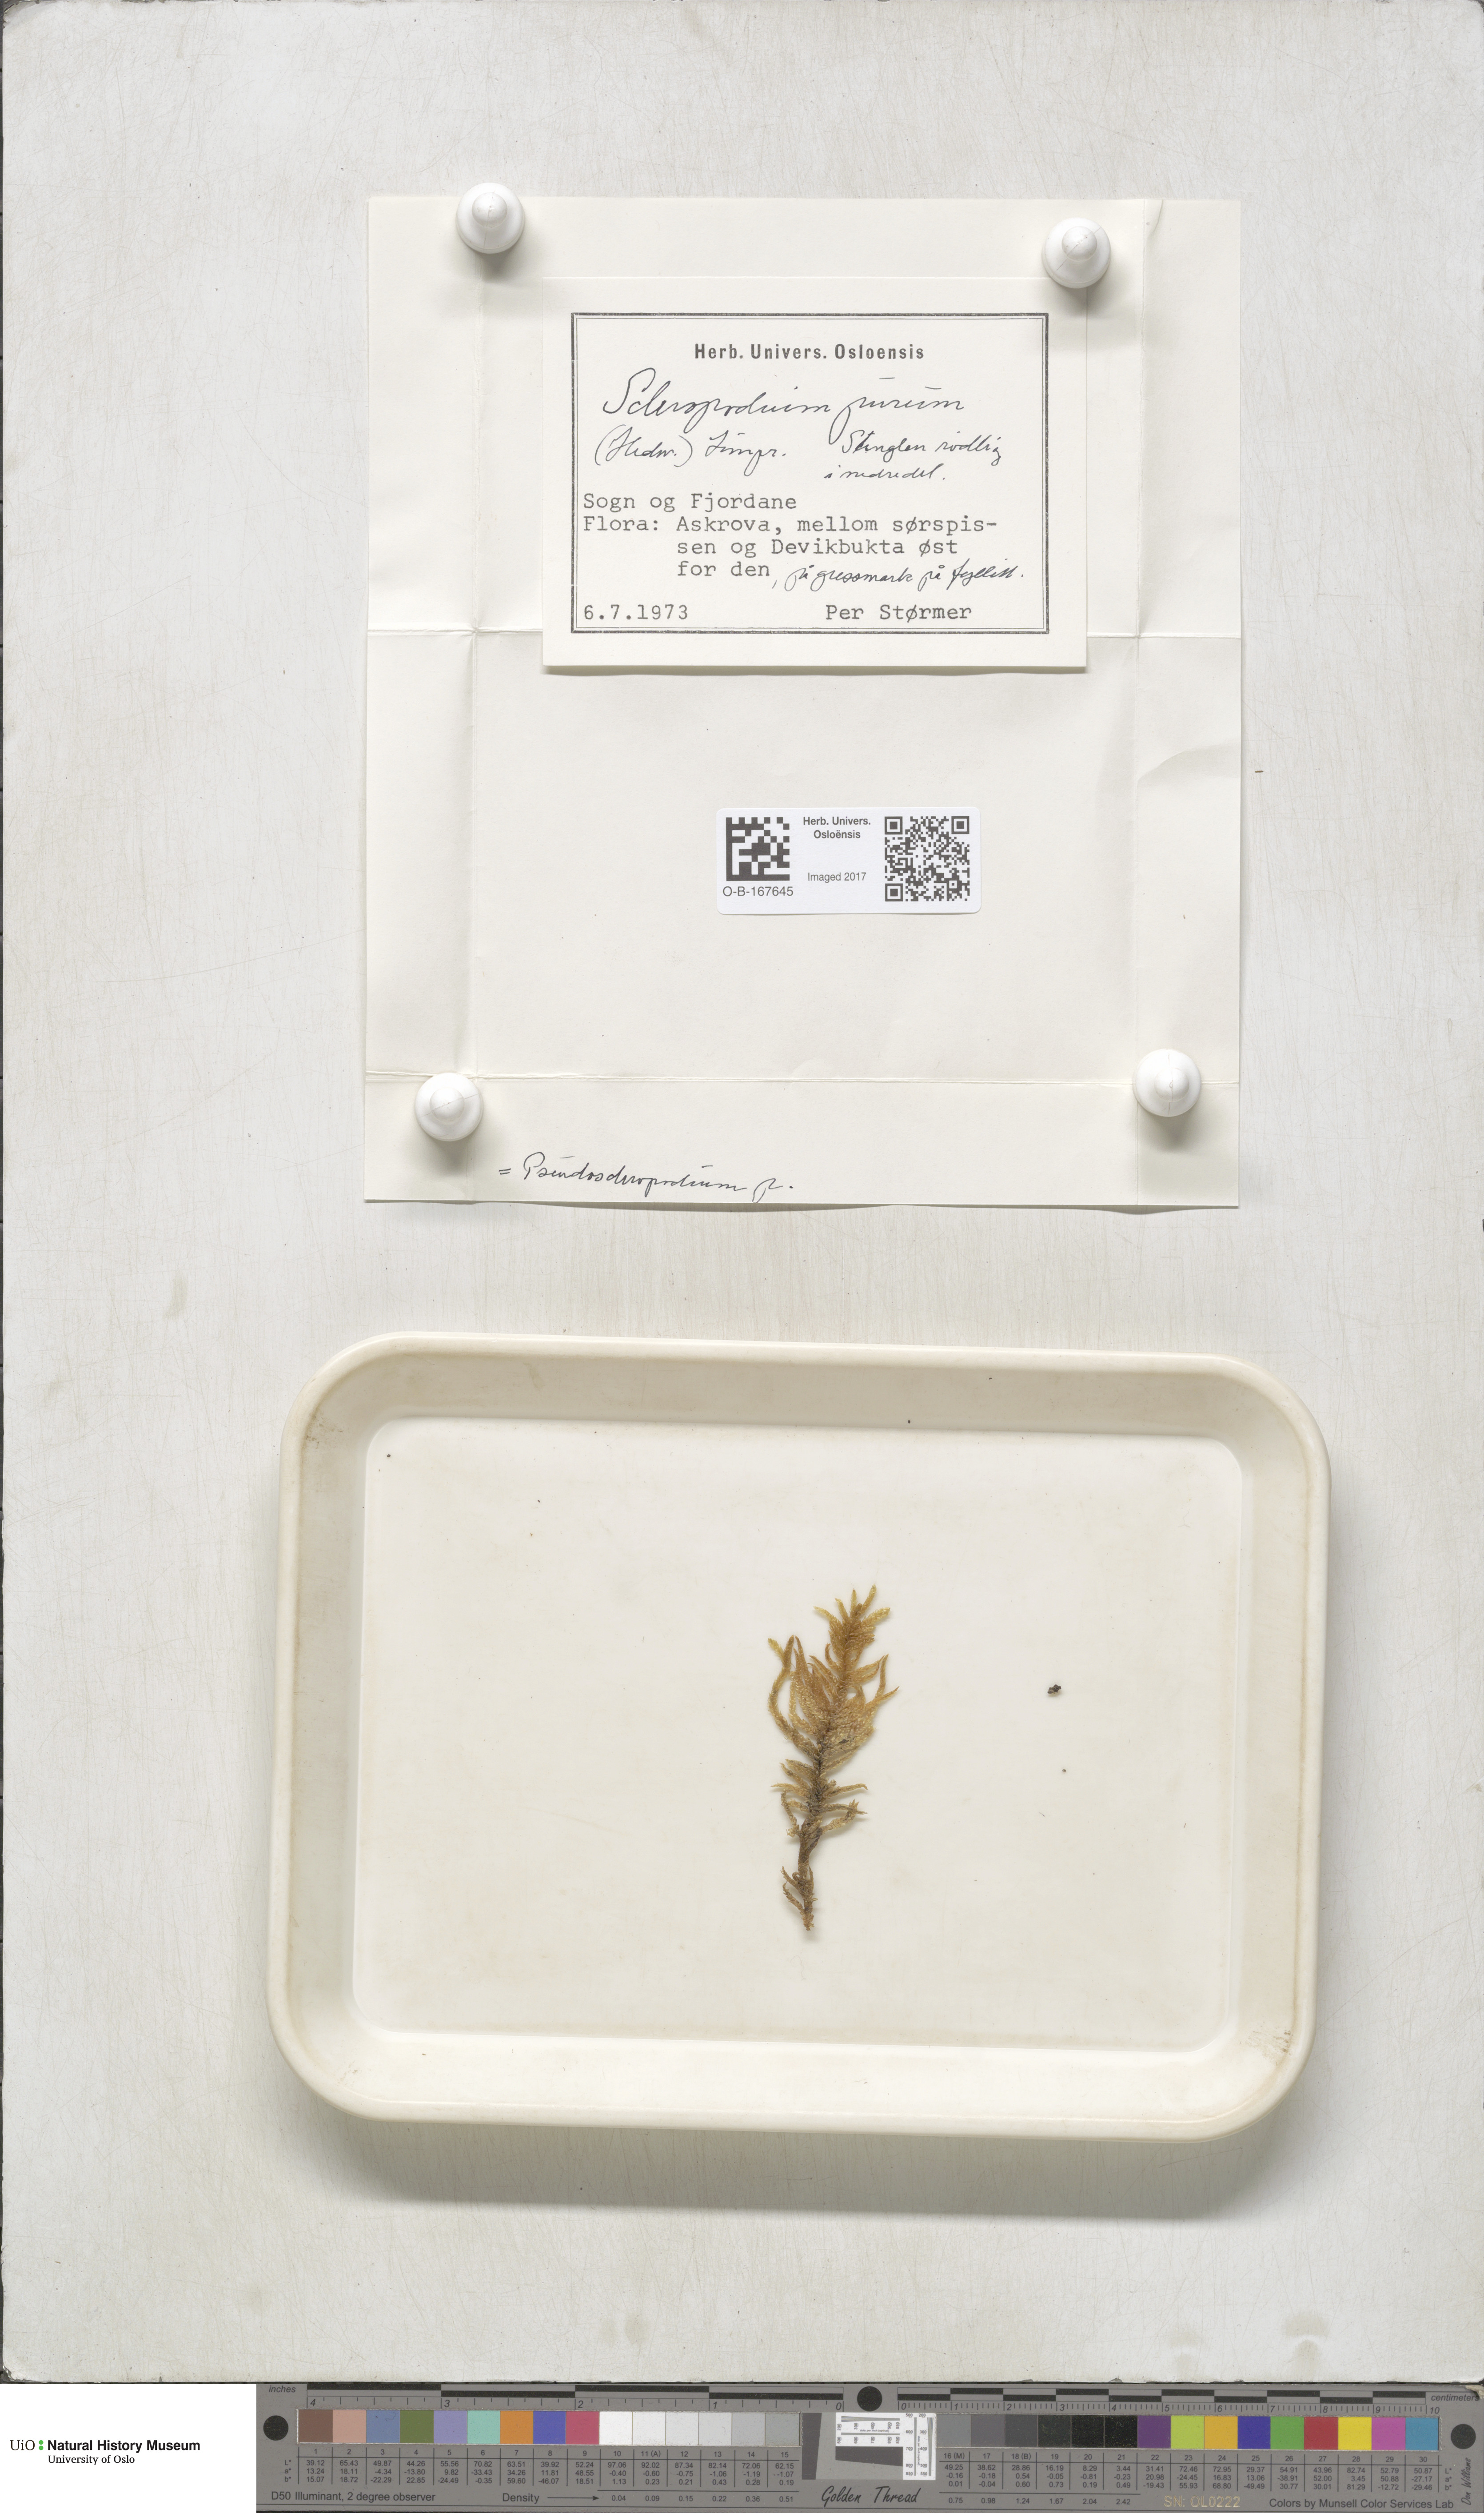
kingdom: Plantae
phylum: Bryophyta
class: Bryopsida
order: Hypnales
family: Brachytheciaceae
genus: Pseudoscleropodium
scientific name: Pseudoscleropodium purum
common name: Neat feather-moss
